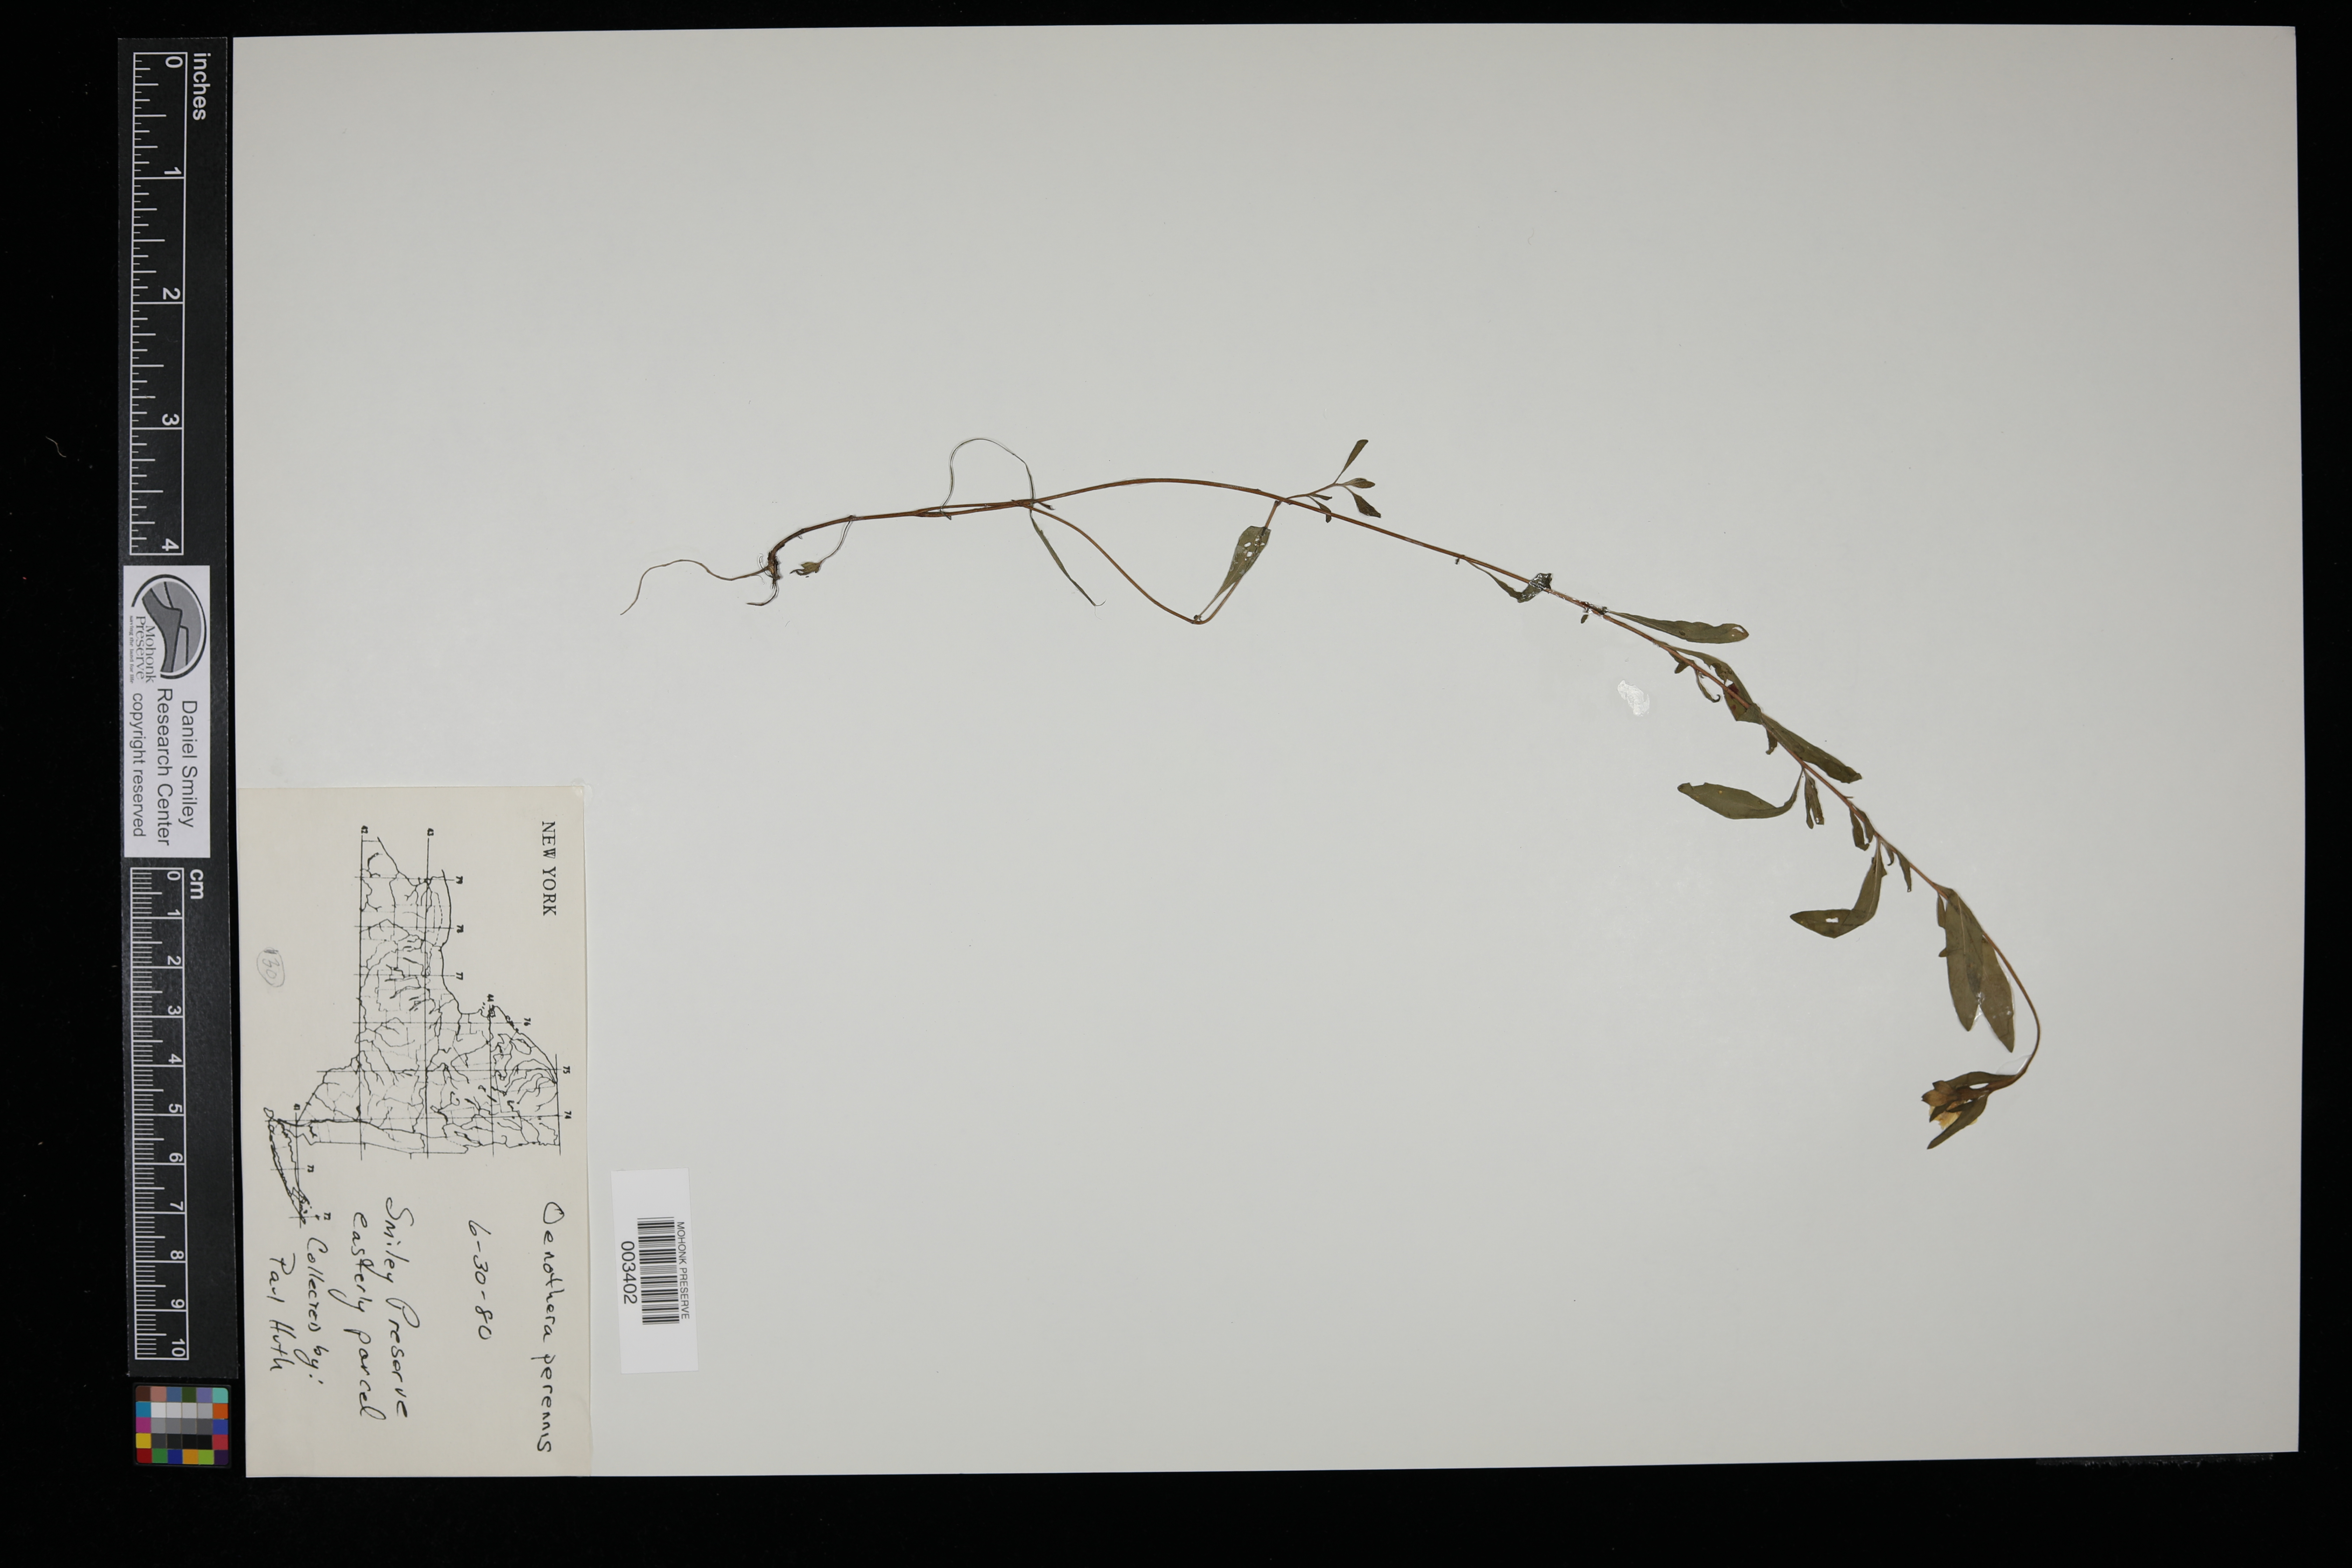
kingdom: Plantae
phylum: Tracheophyta
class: Magnoliopsida
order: Myrtales
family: Onagraceae
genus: Oenothera
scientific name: Oenothera perennis
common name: Small sundrops
